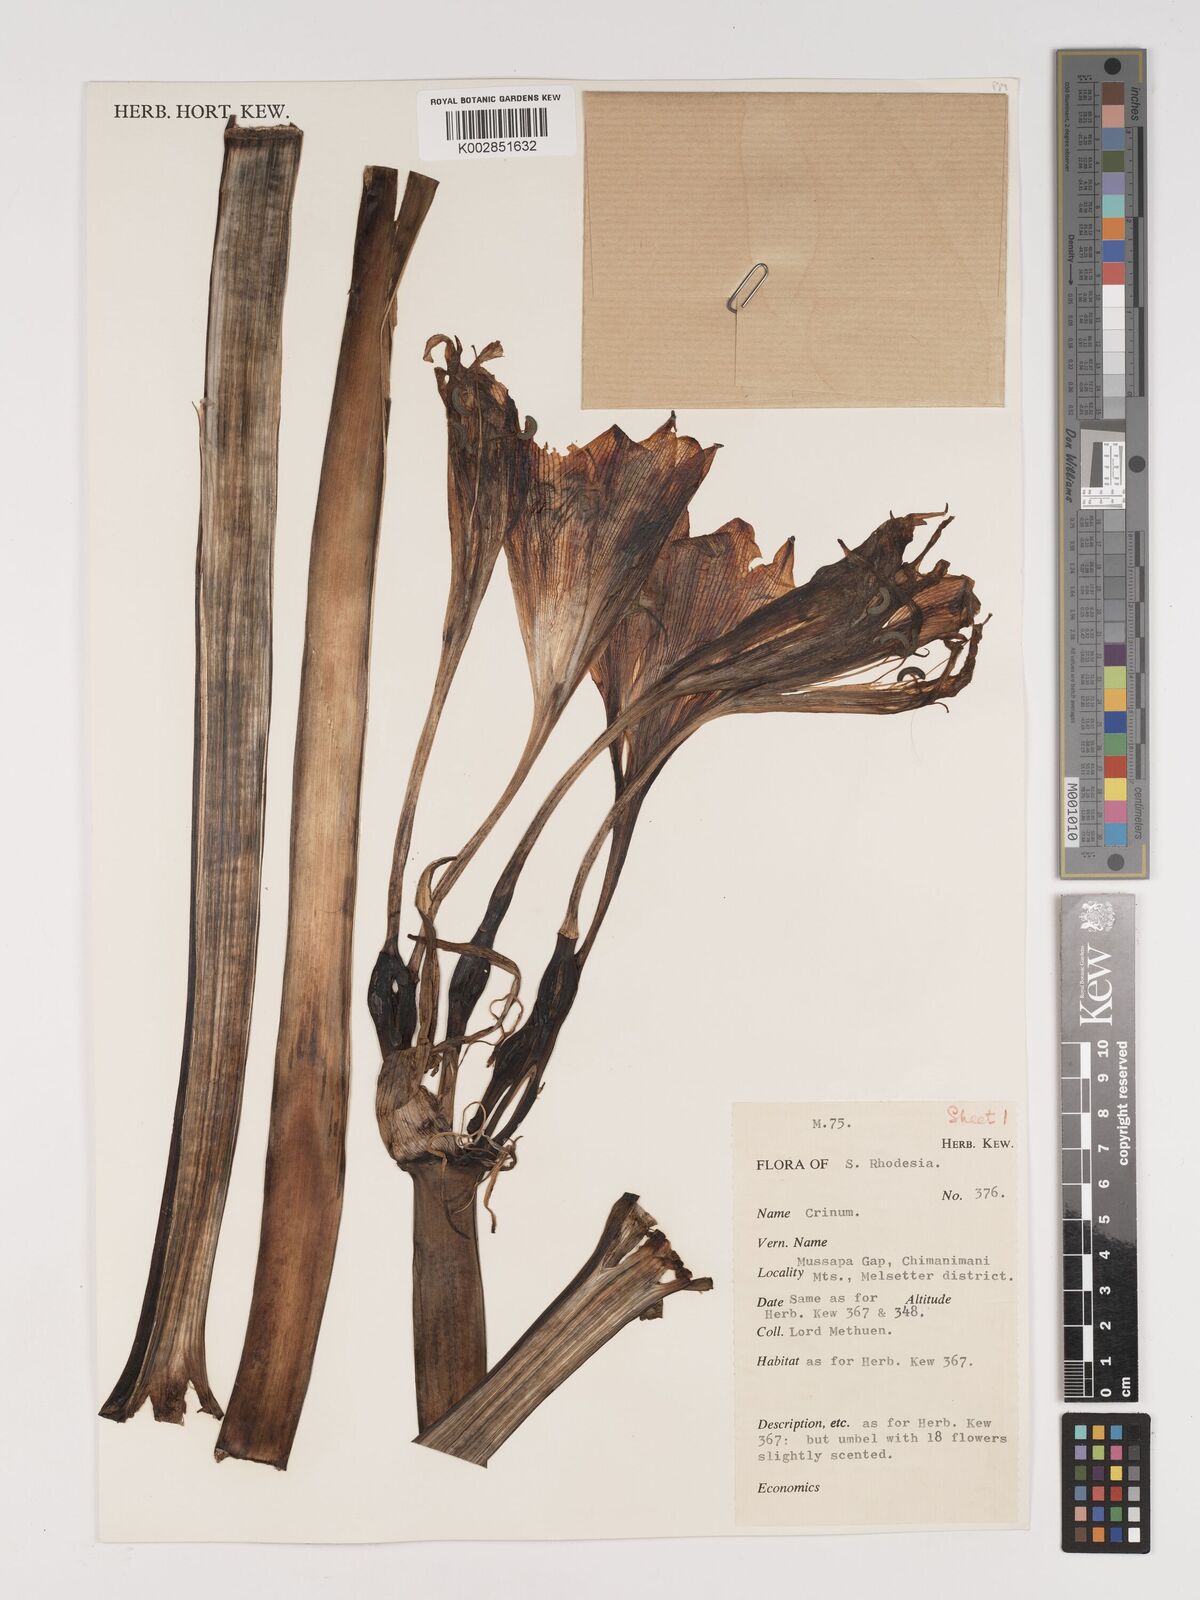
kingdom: Plantae
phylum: Tracheophyta
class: Liliopsida
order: Asparagales
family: Amaryllidaceae
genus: Crinum
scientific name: Crinum macowanii
